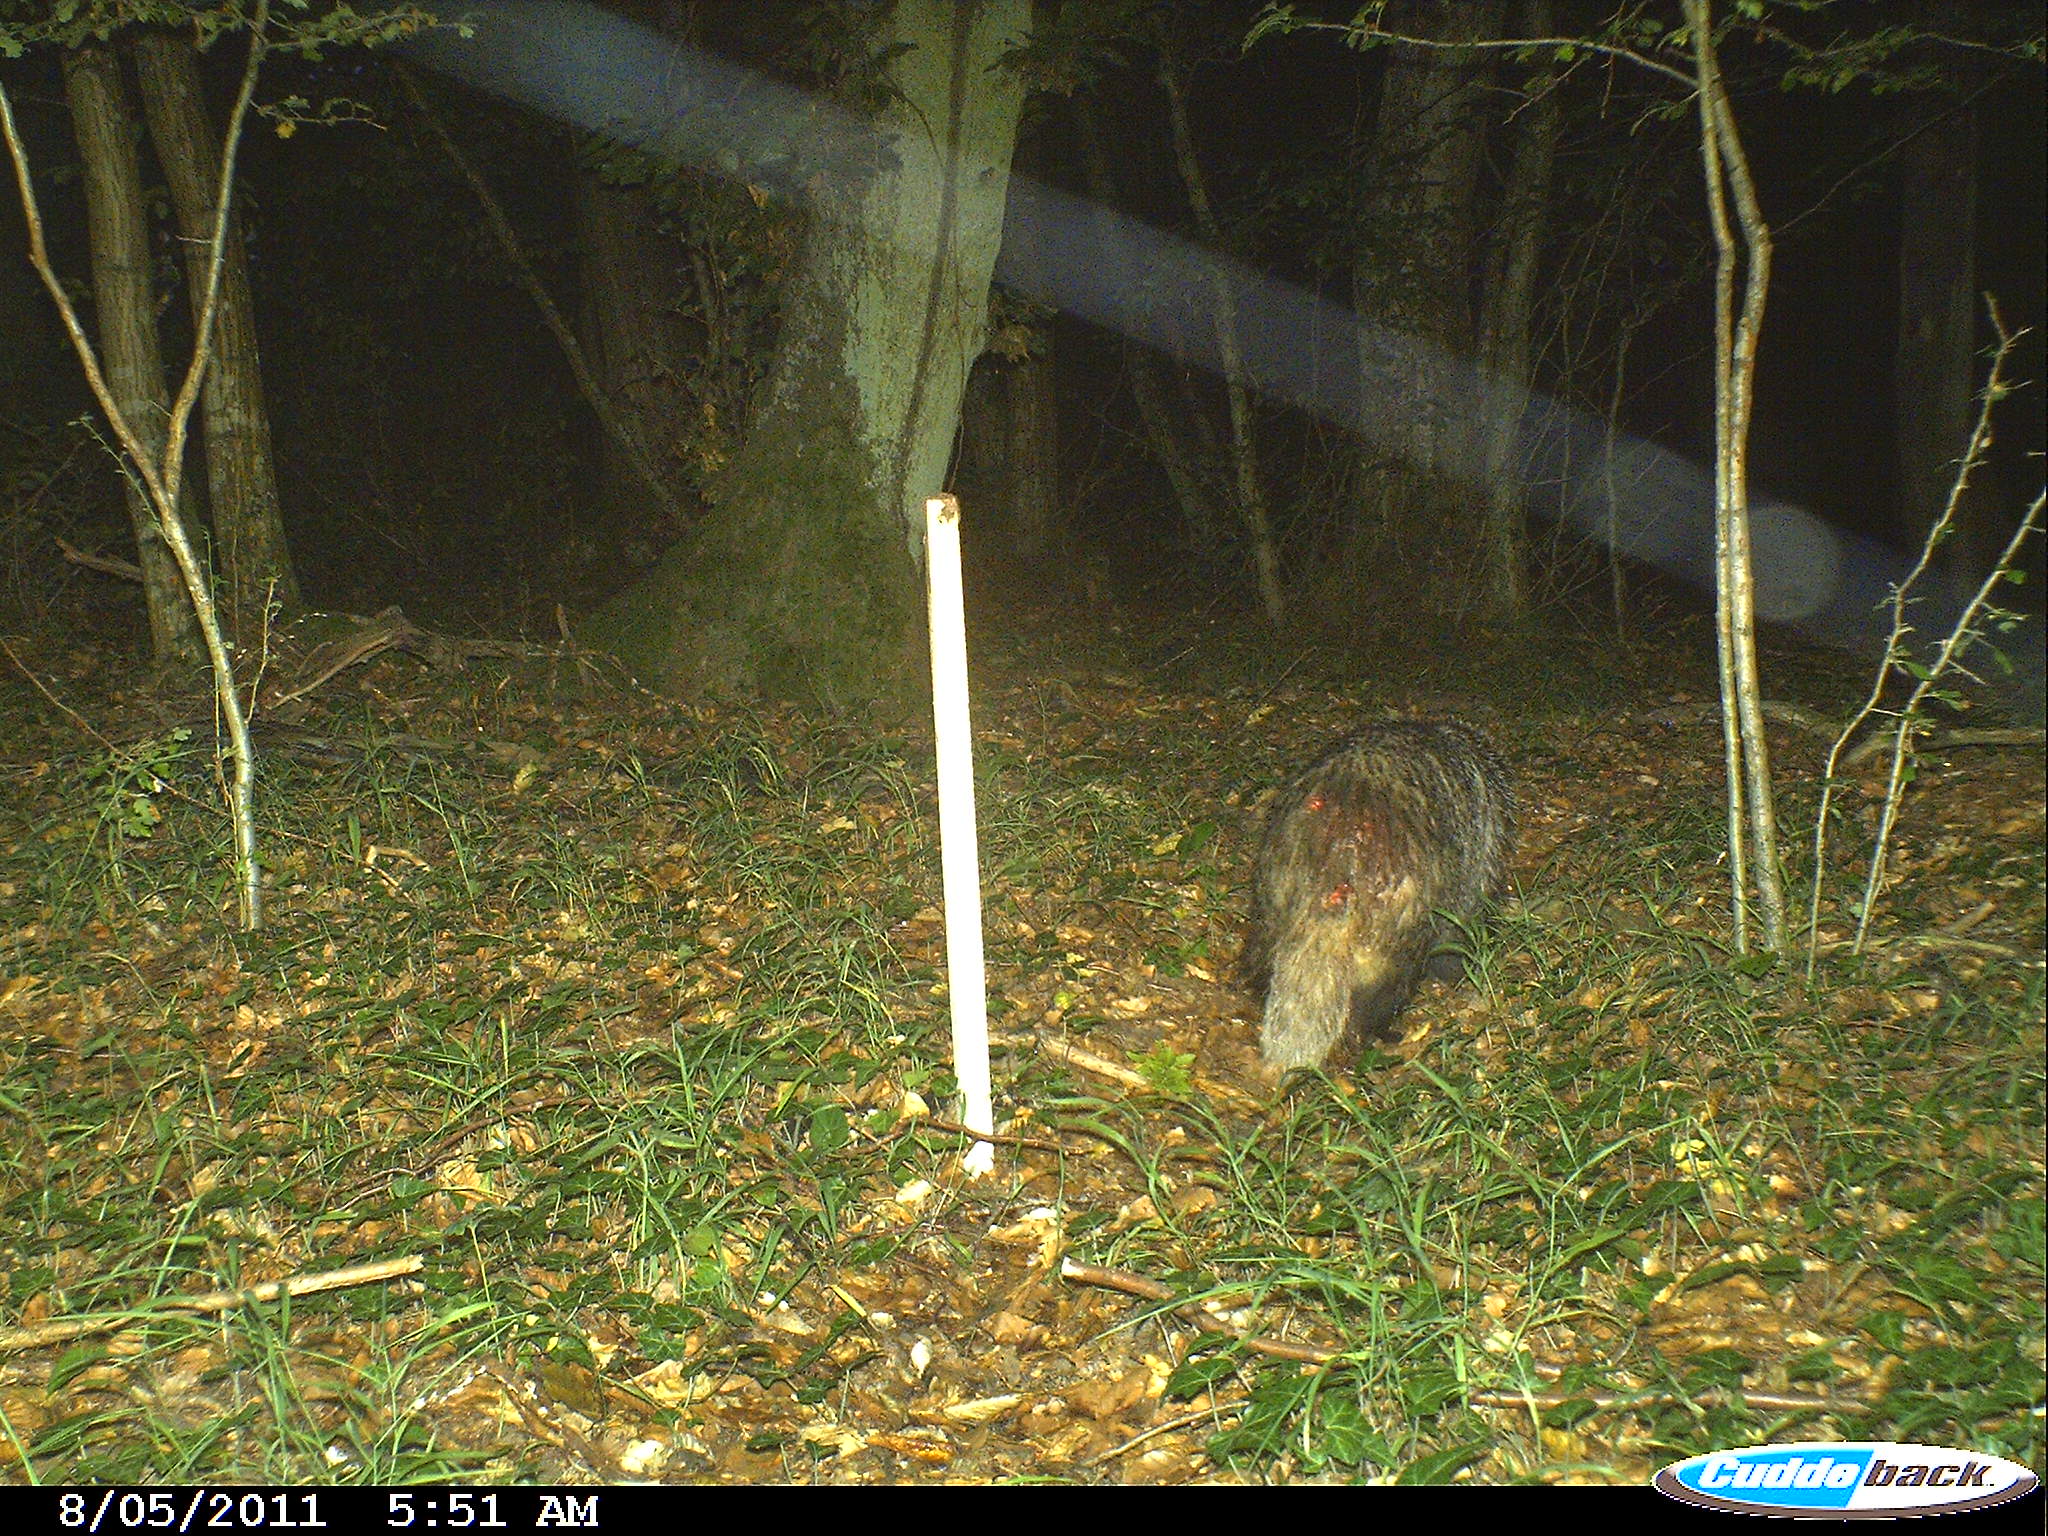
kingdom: Animalia
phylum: Chordata
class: Mammalia
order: Carnivora
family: Mustelidae
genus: Meles
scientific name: Meles meles
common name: Eurasian badger
